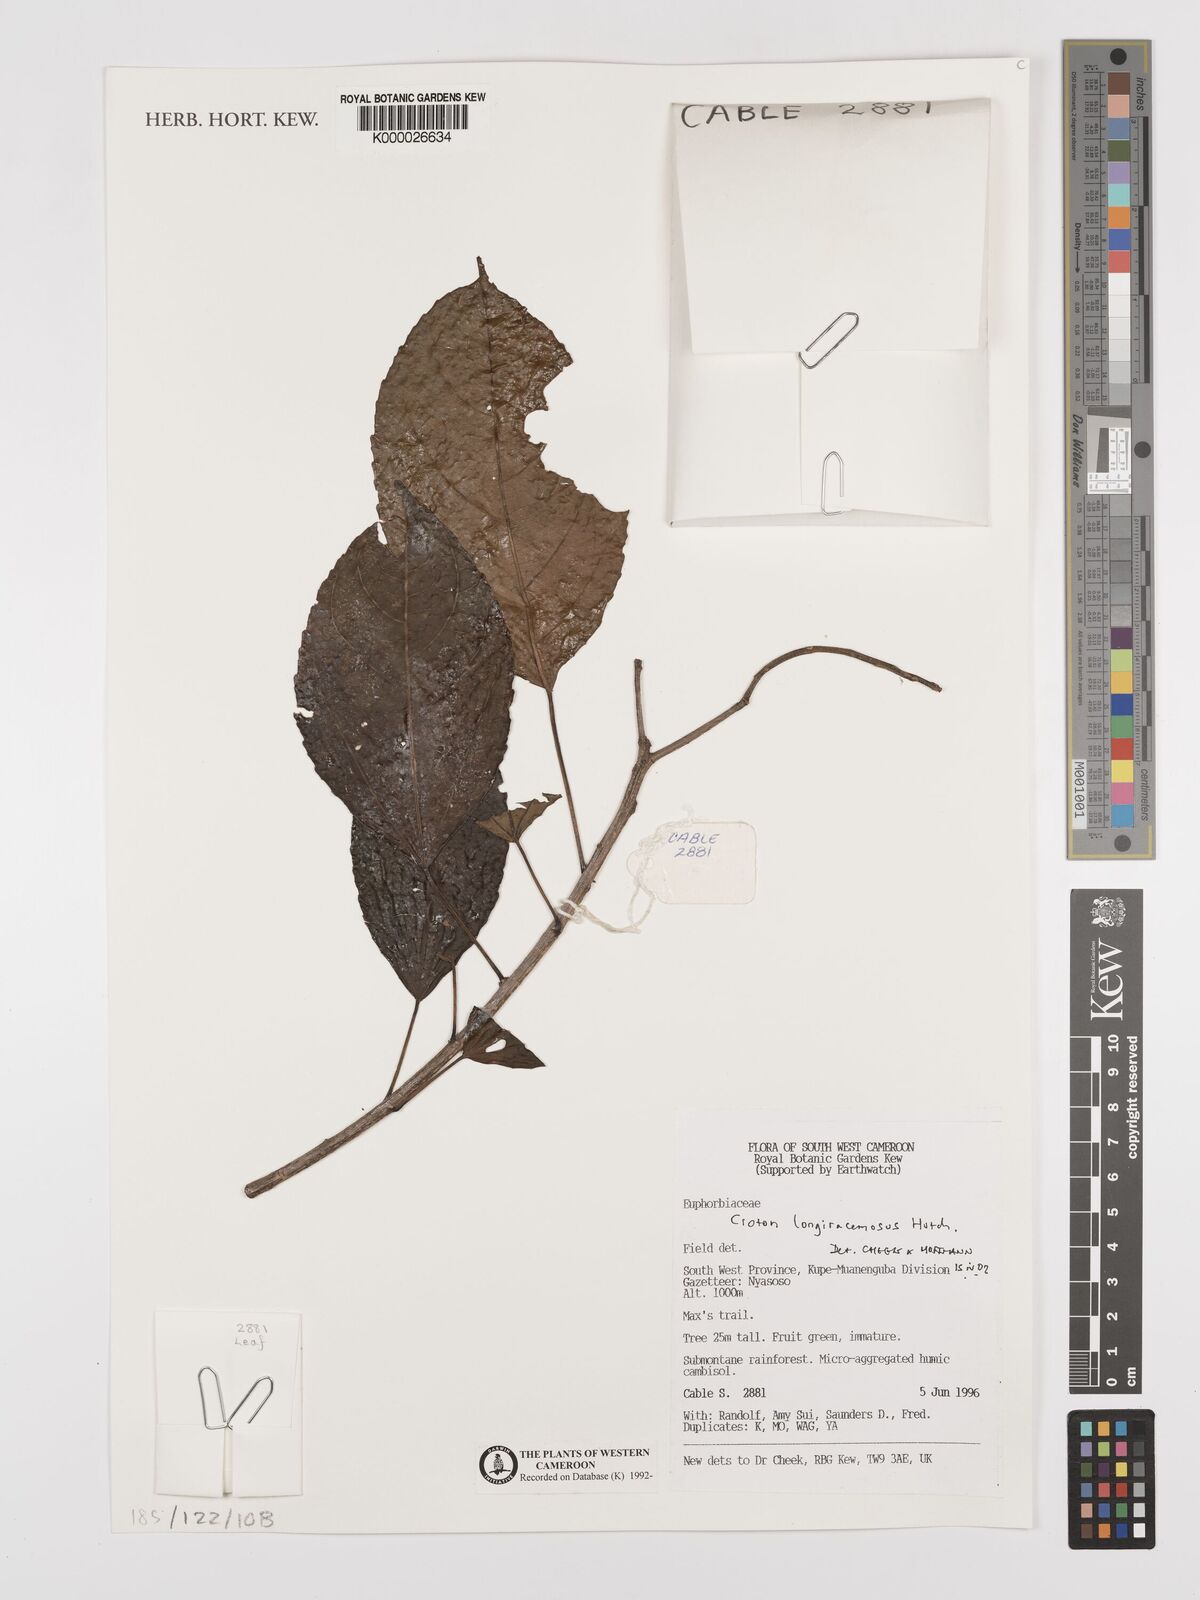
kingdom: Plantae
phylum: Tracheophyta
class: Magnoliopsida
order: Malpighiales
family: Euphorbiaceae
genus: Croton
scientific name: Croton longiracemosus
